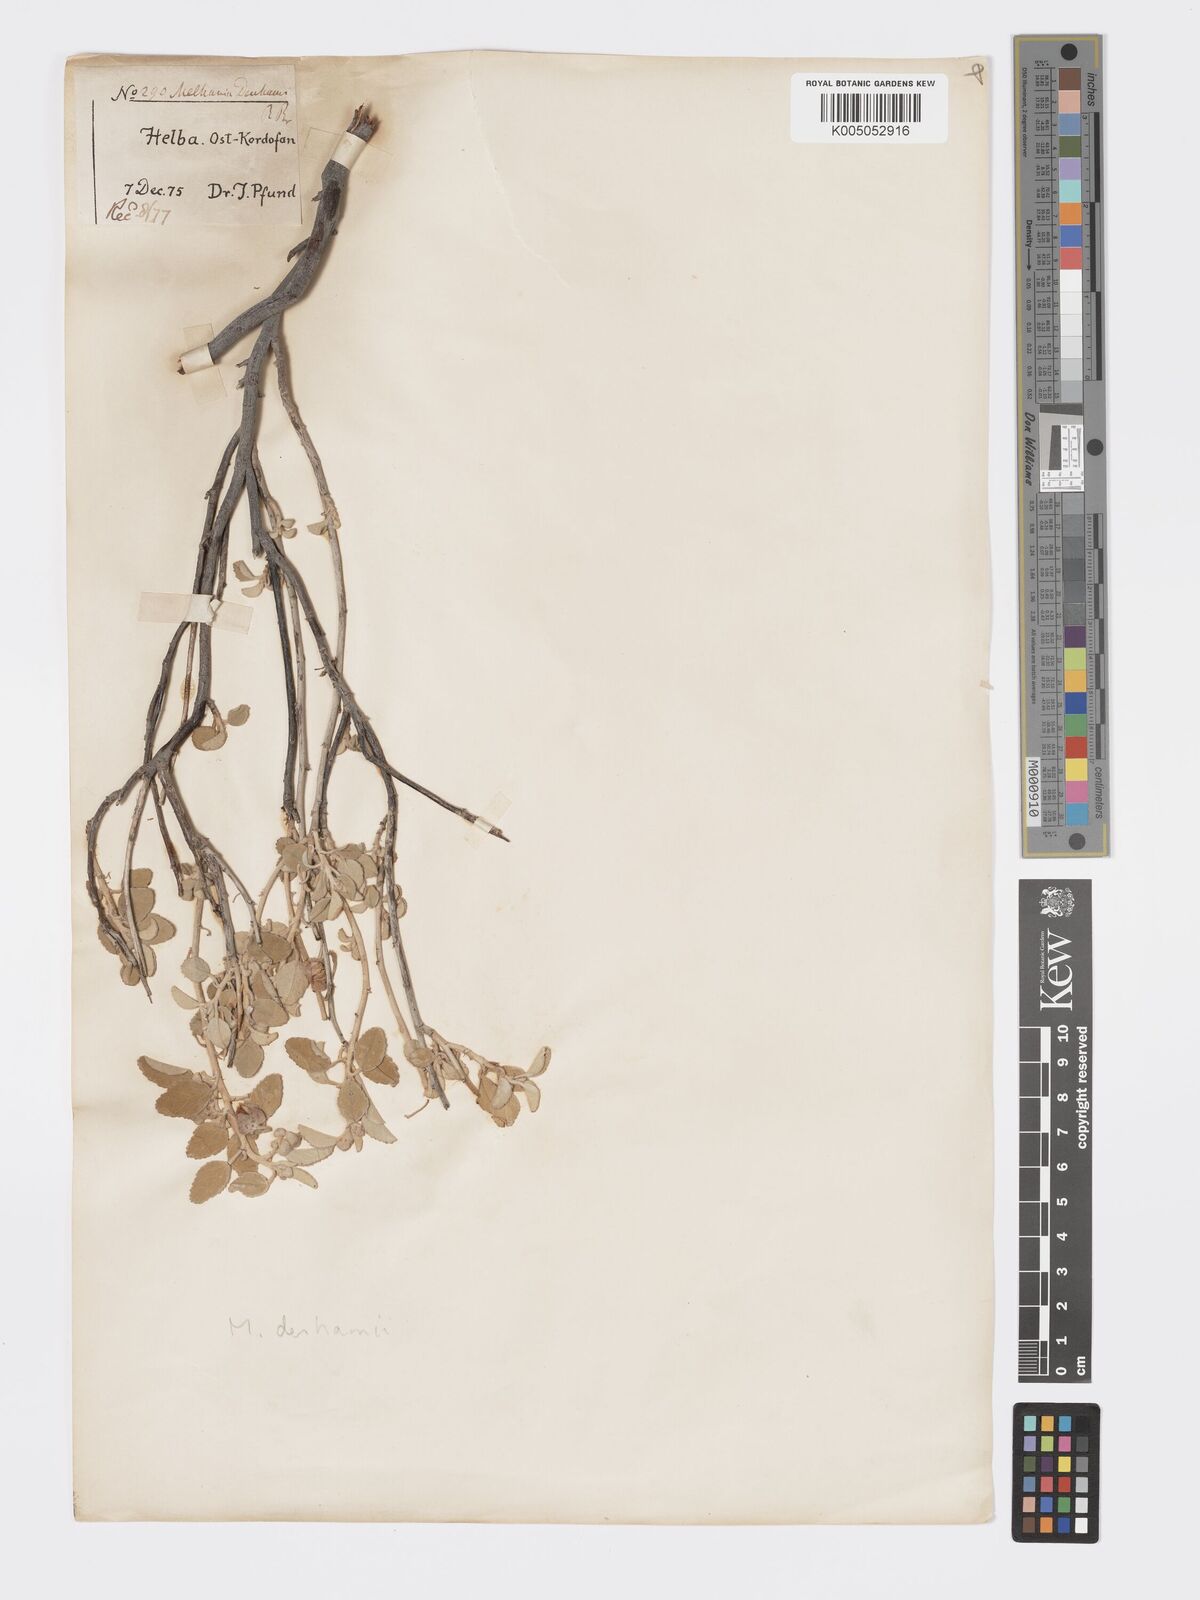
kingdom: Plantae
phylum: Tracheophyta
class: Magnoliopsida
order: Malvales
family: Malvaceae
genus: Melhania
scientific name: Melhania denhamii
